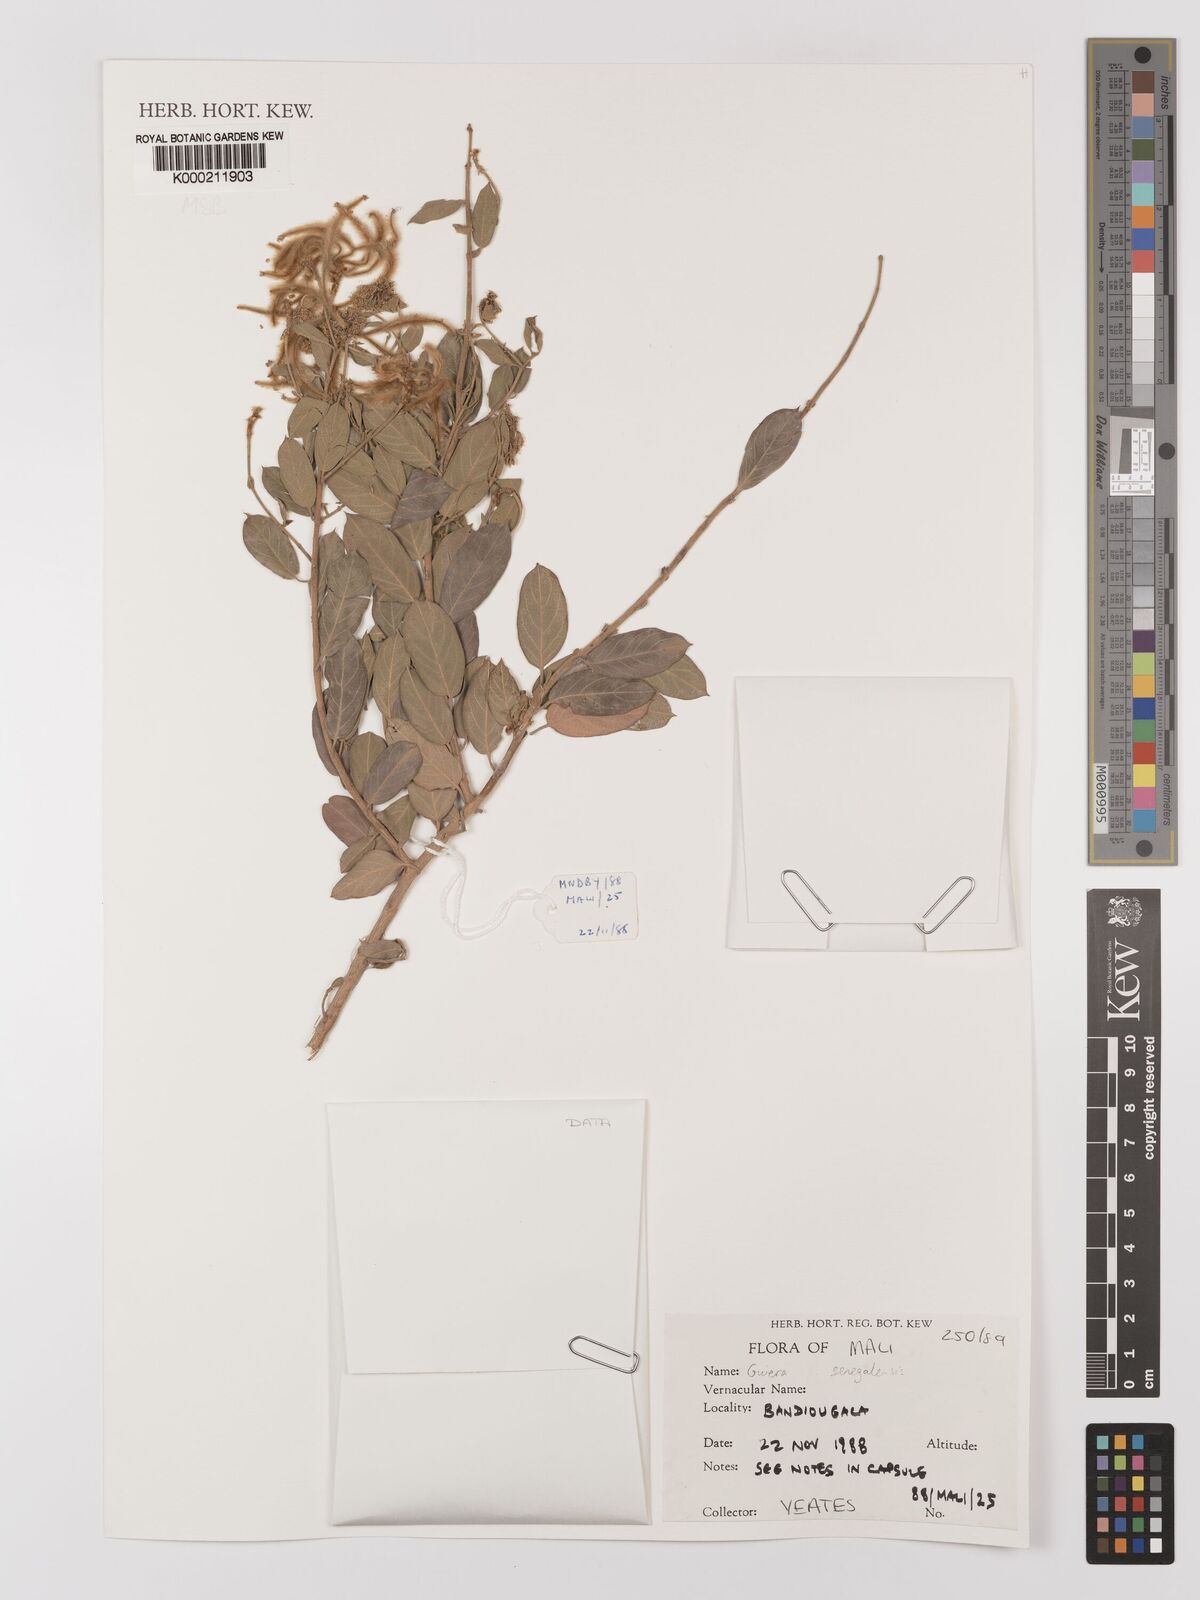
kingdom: Plantae
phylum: Tracheophyta
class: Magnoliopsida
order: Myrtales
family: Combretaceae
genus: Guiera
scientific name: Guiera senegalensis
